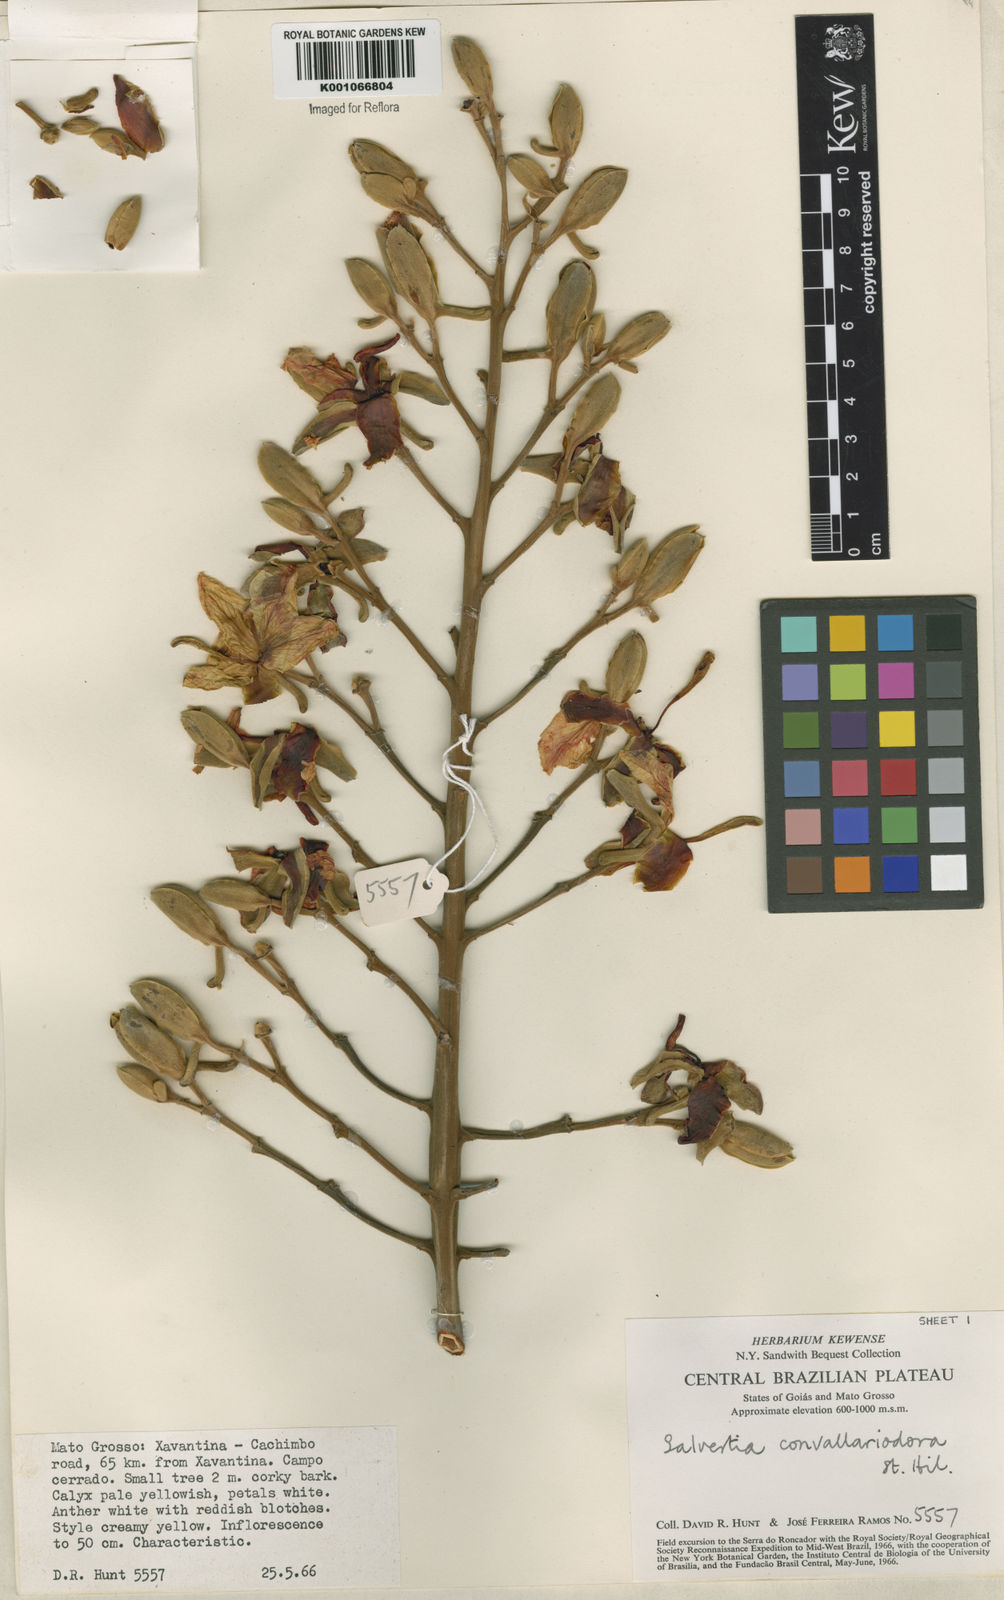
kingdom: Plantae
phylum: Tracheophyta
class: Magnoliopsida
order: Myrtales
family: Vochysiaceae
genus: Salvertia
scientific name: Salvertia convallariodora
